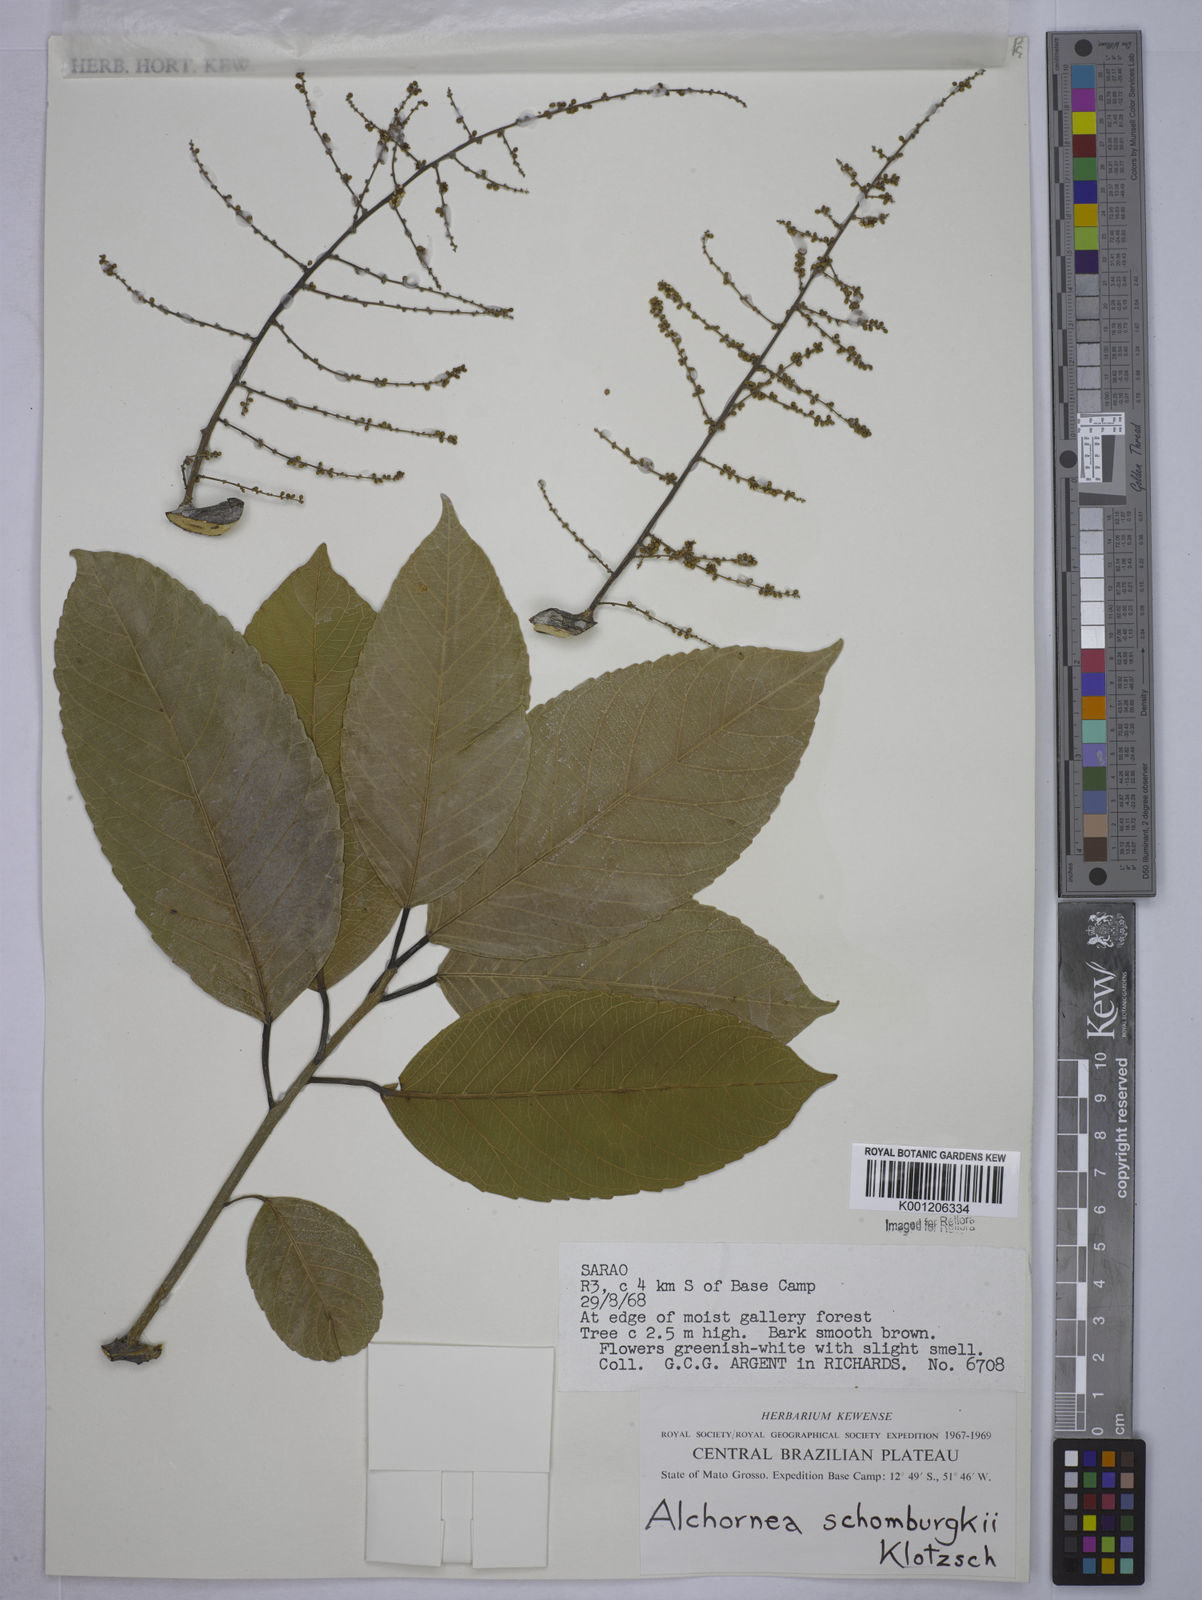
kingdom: Plantae
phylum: Tracheophyta
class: Magnoliopsida
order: Malpighiales
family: Euphorbiaceae
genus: Alchornea
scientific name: Alchornea discolor
